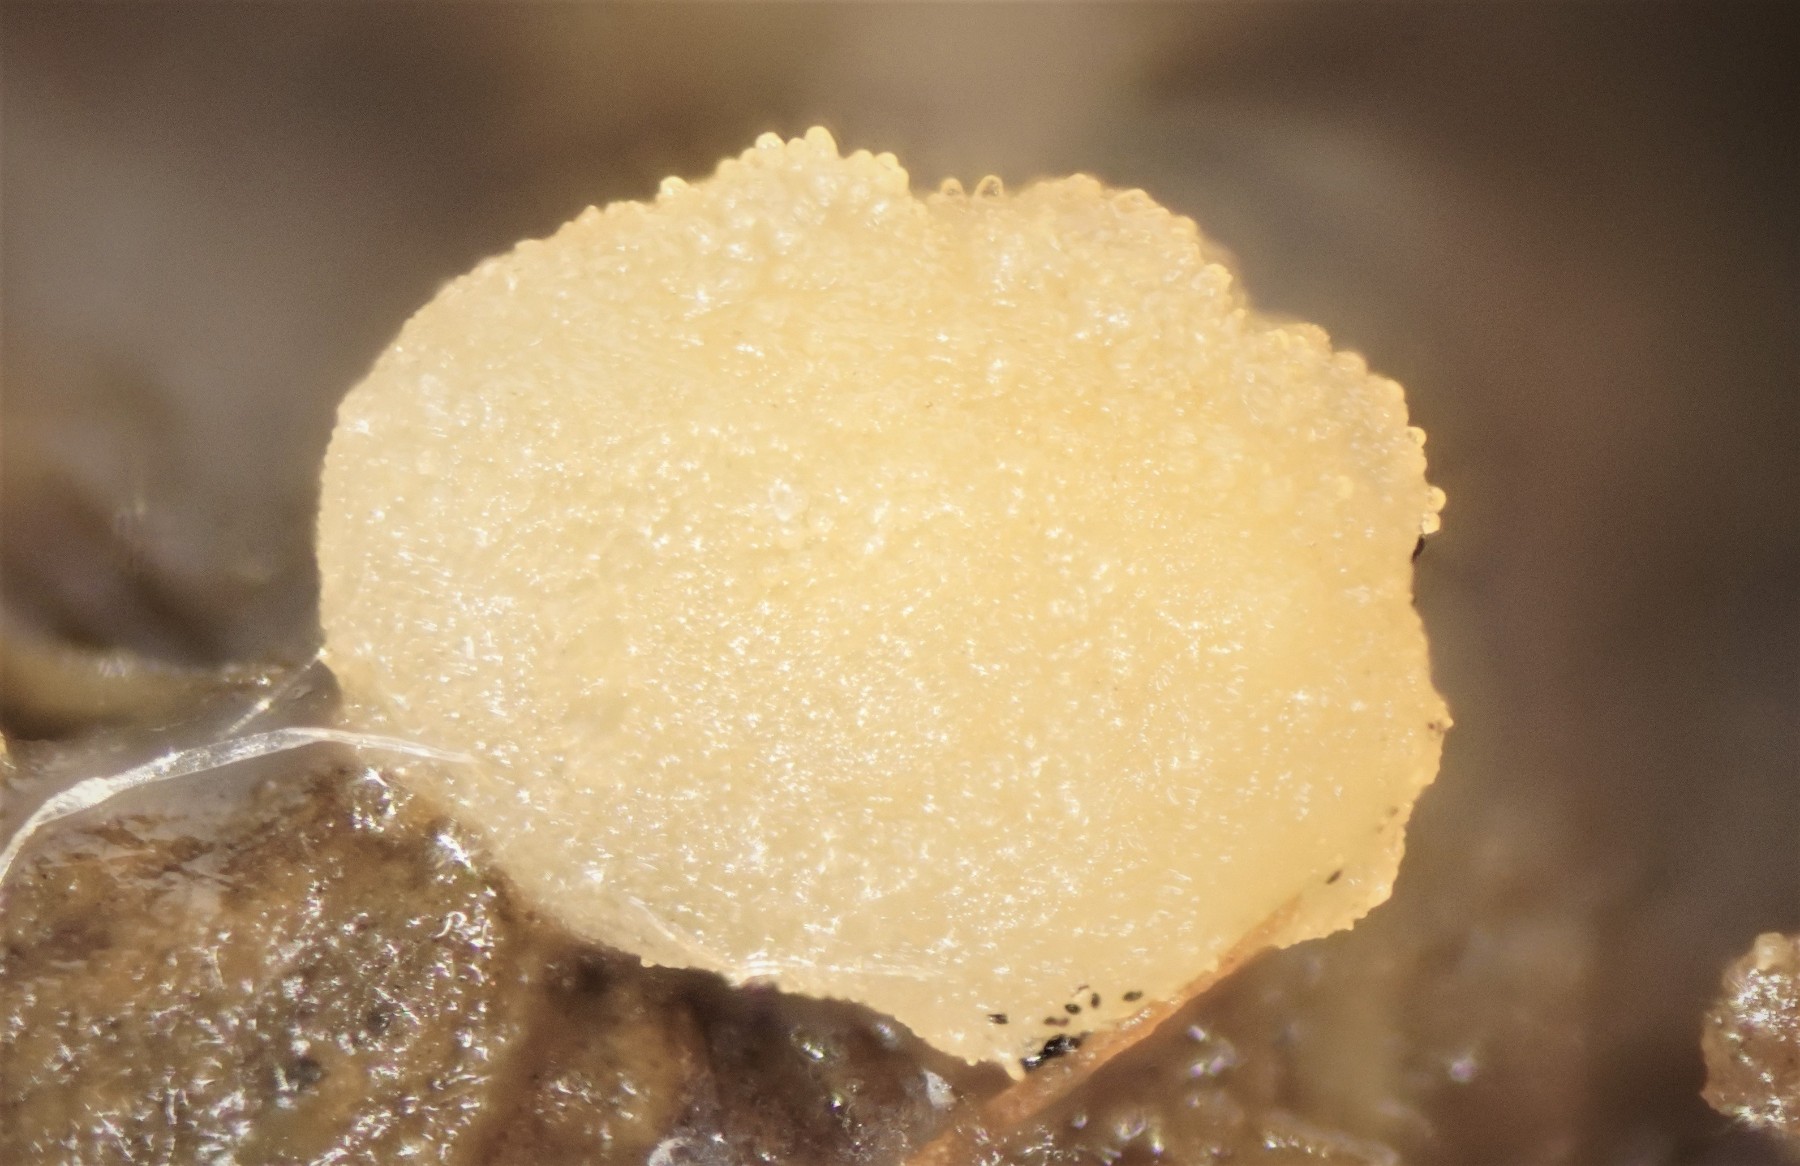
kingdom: Fungi
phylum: Ascomycota
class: Pezizomycetes
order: Pezizales
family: Pezizaceae
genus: Iodophanus
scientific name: Iodophanus carneus
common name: kødfarvet prikbæger
